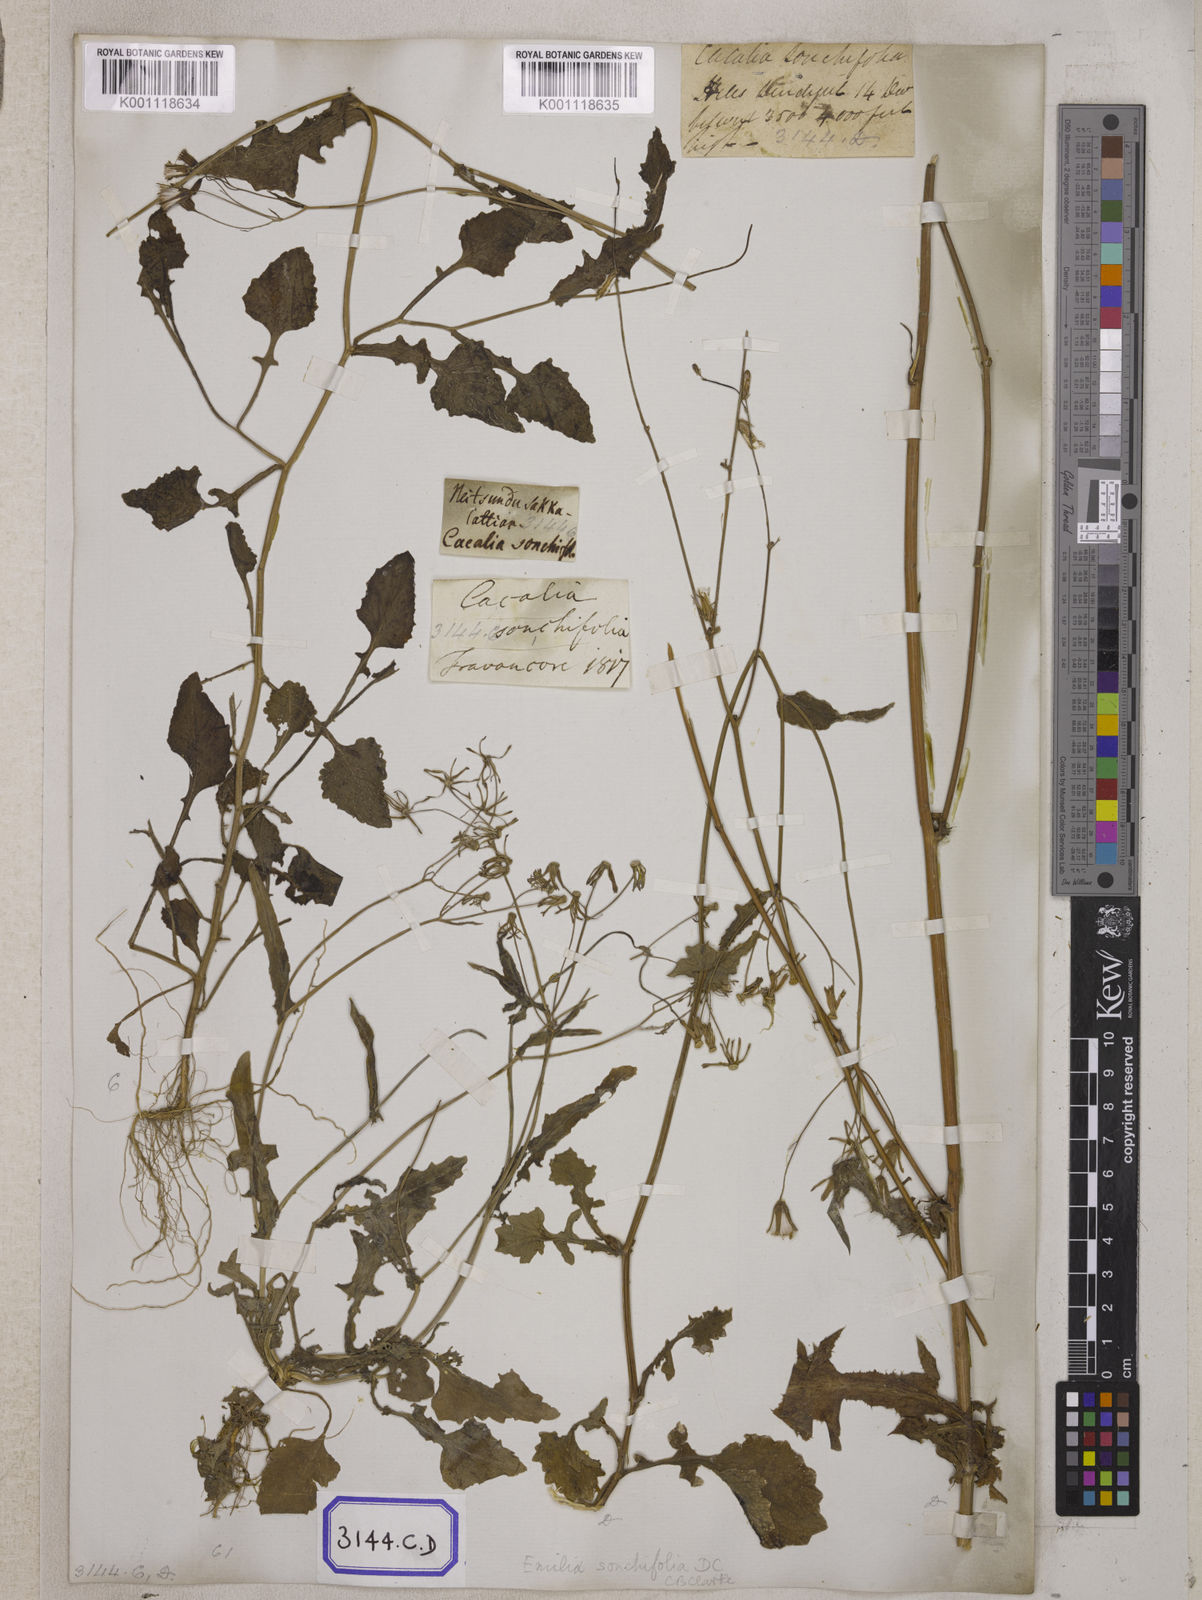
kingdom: Plantae
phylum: Tracheophyta
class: Magnoliopsida
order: Asterales
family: Asteraceae
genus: Launaea
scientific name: Launaea remotiflora
